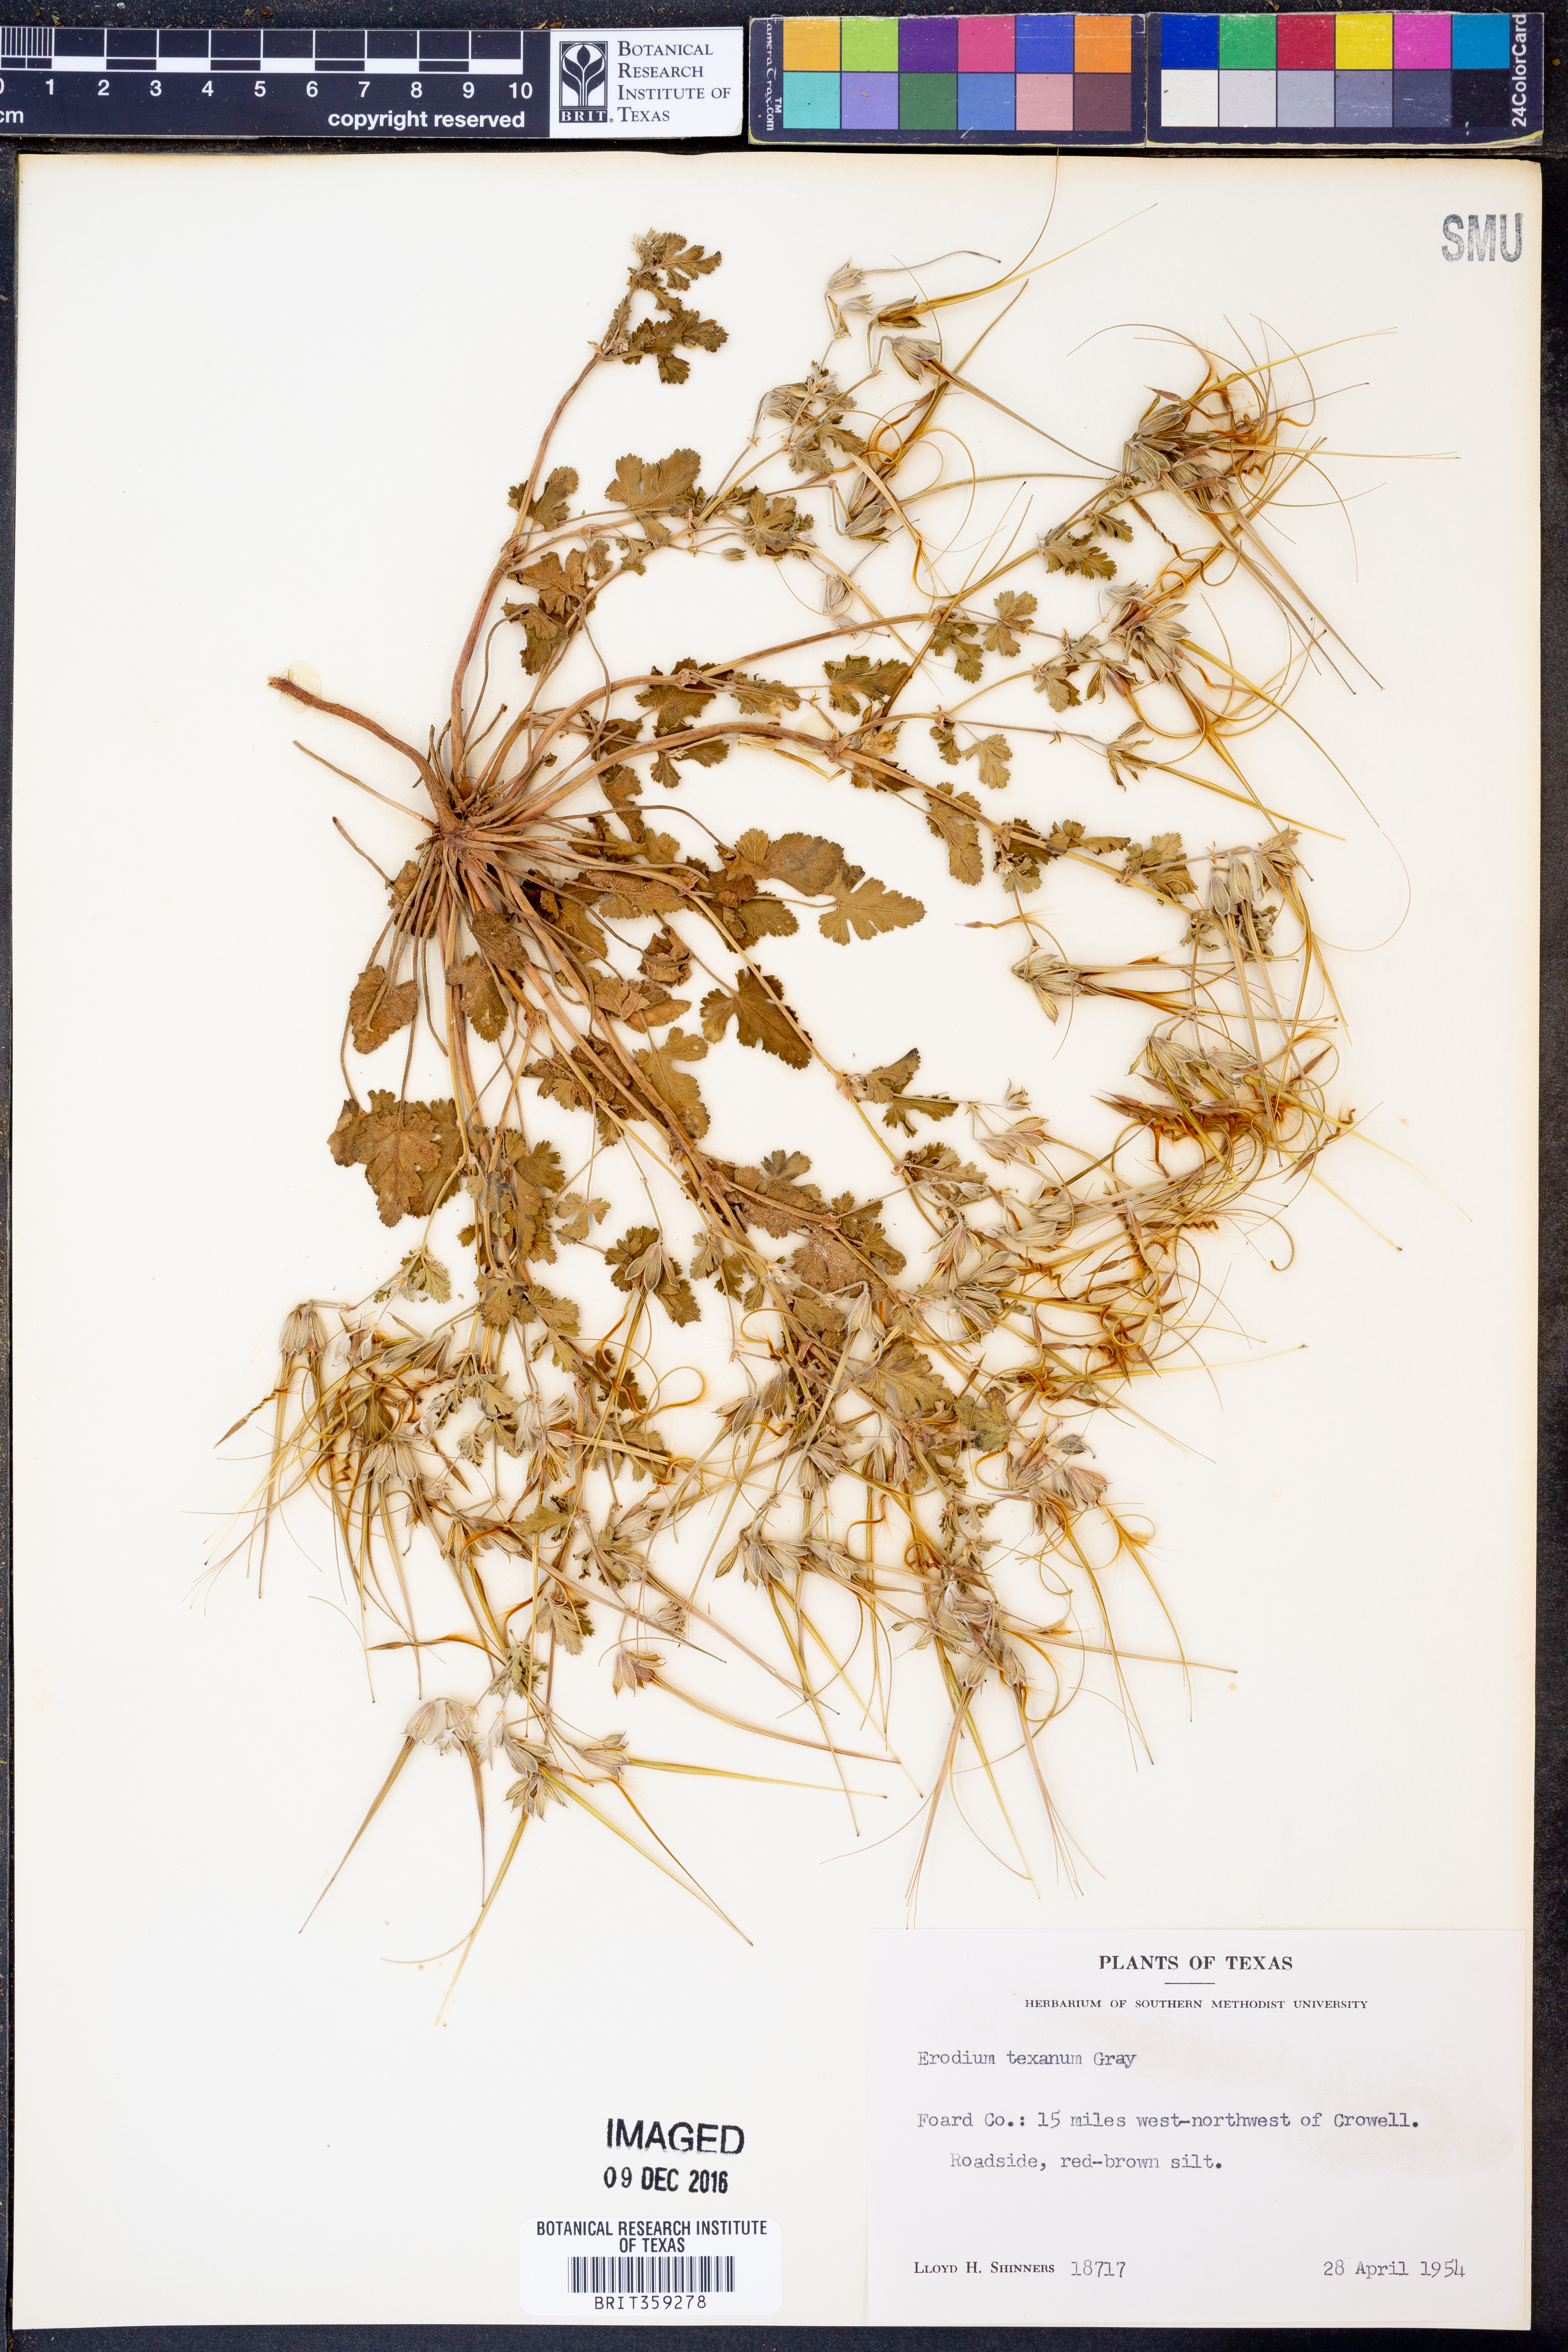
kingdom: Plantae
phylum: Tracheophyta
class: Magnoliopsida
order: Geraniales
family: Geraniaceae
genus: Erodium
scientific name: Erodium texanum
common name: Texas stork's-bill
